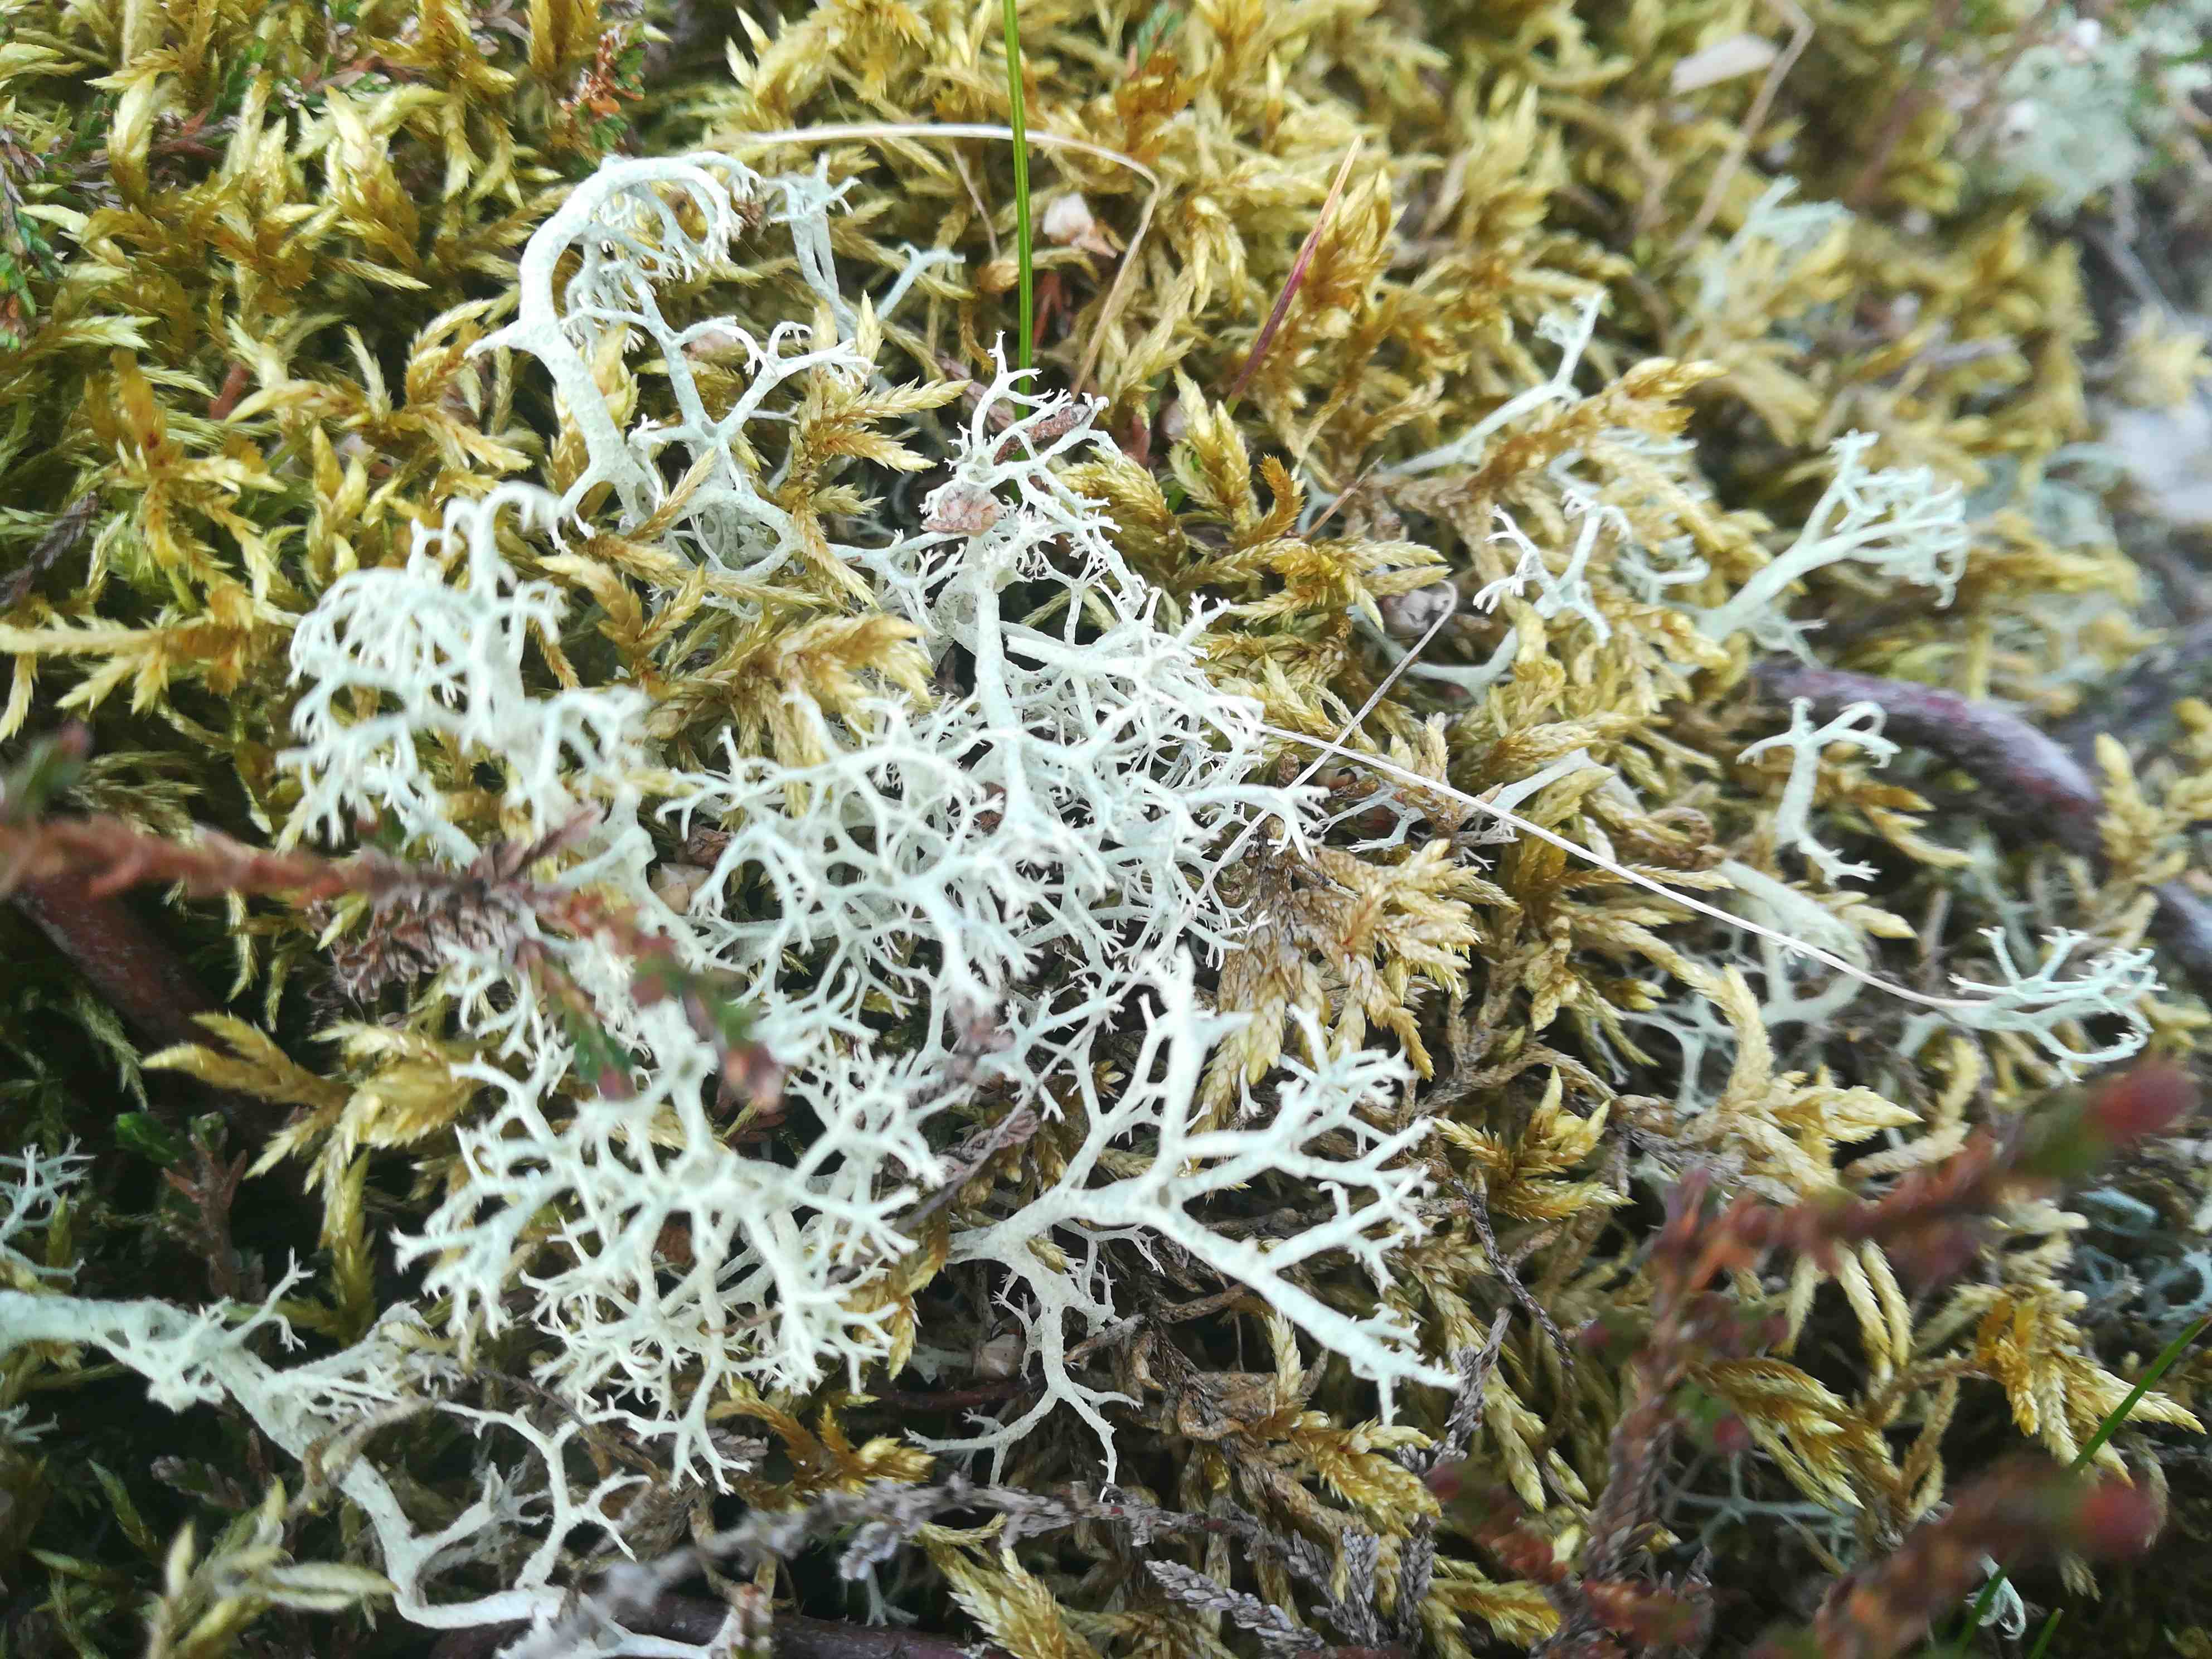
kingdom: Fungi
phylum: Ascomycota
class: Lecanoromycetes
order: Lecanorales
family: Cladoniaceae
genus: Cladonia
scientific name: Cladonia portentosa
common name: hede-rensdyrlav
